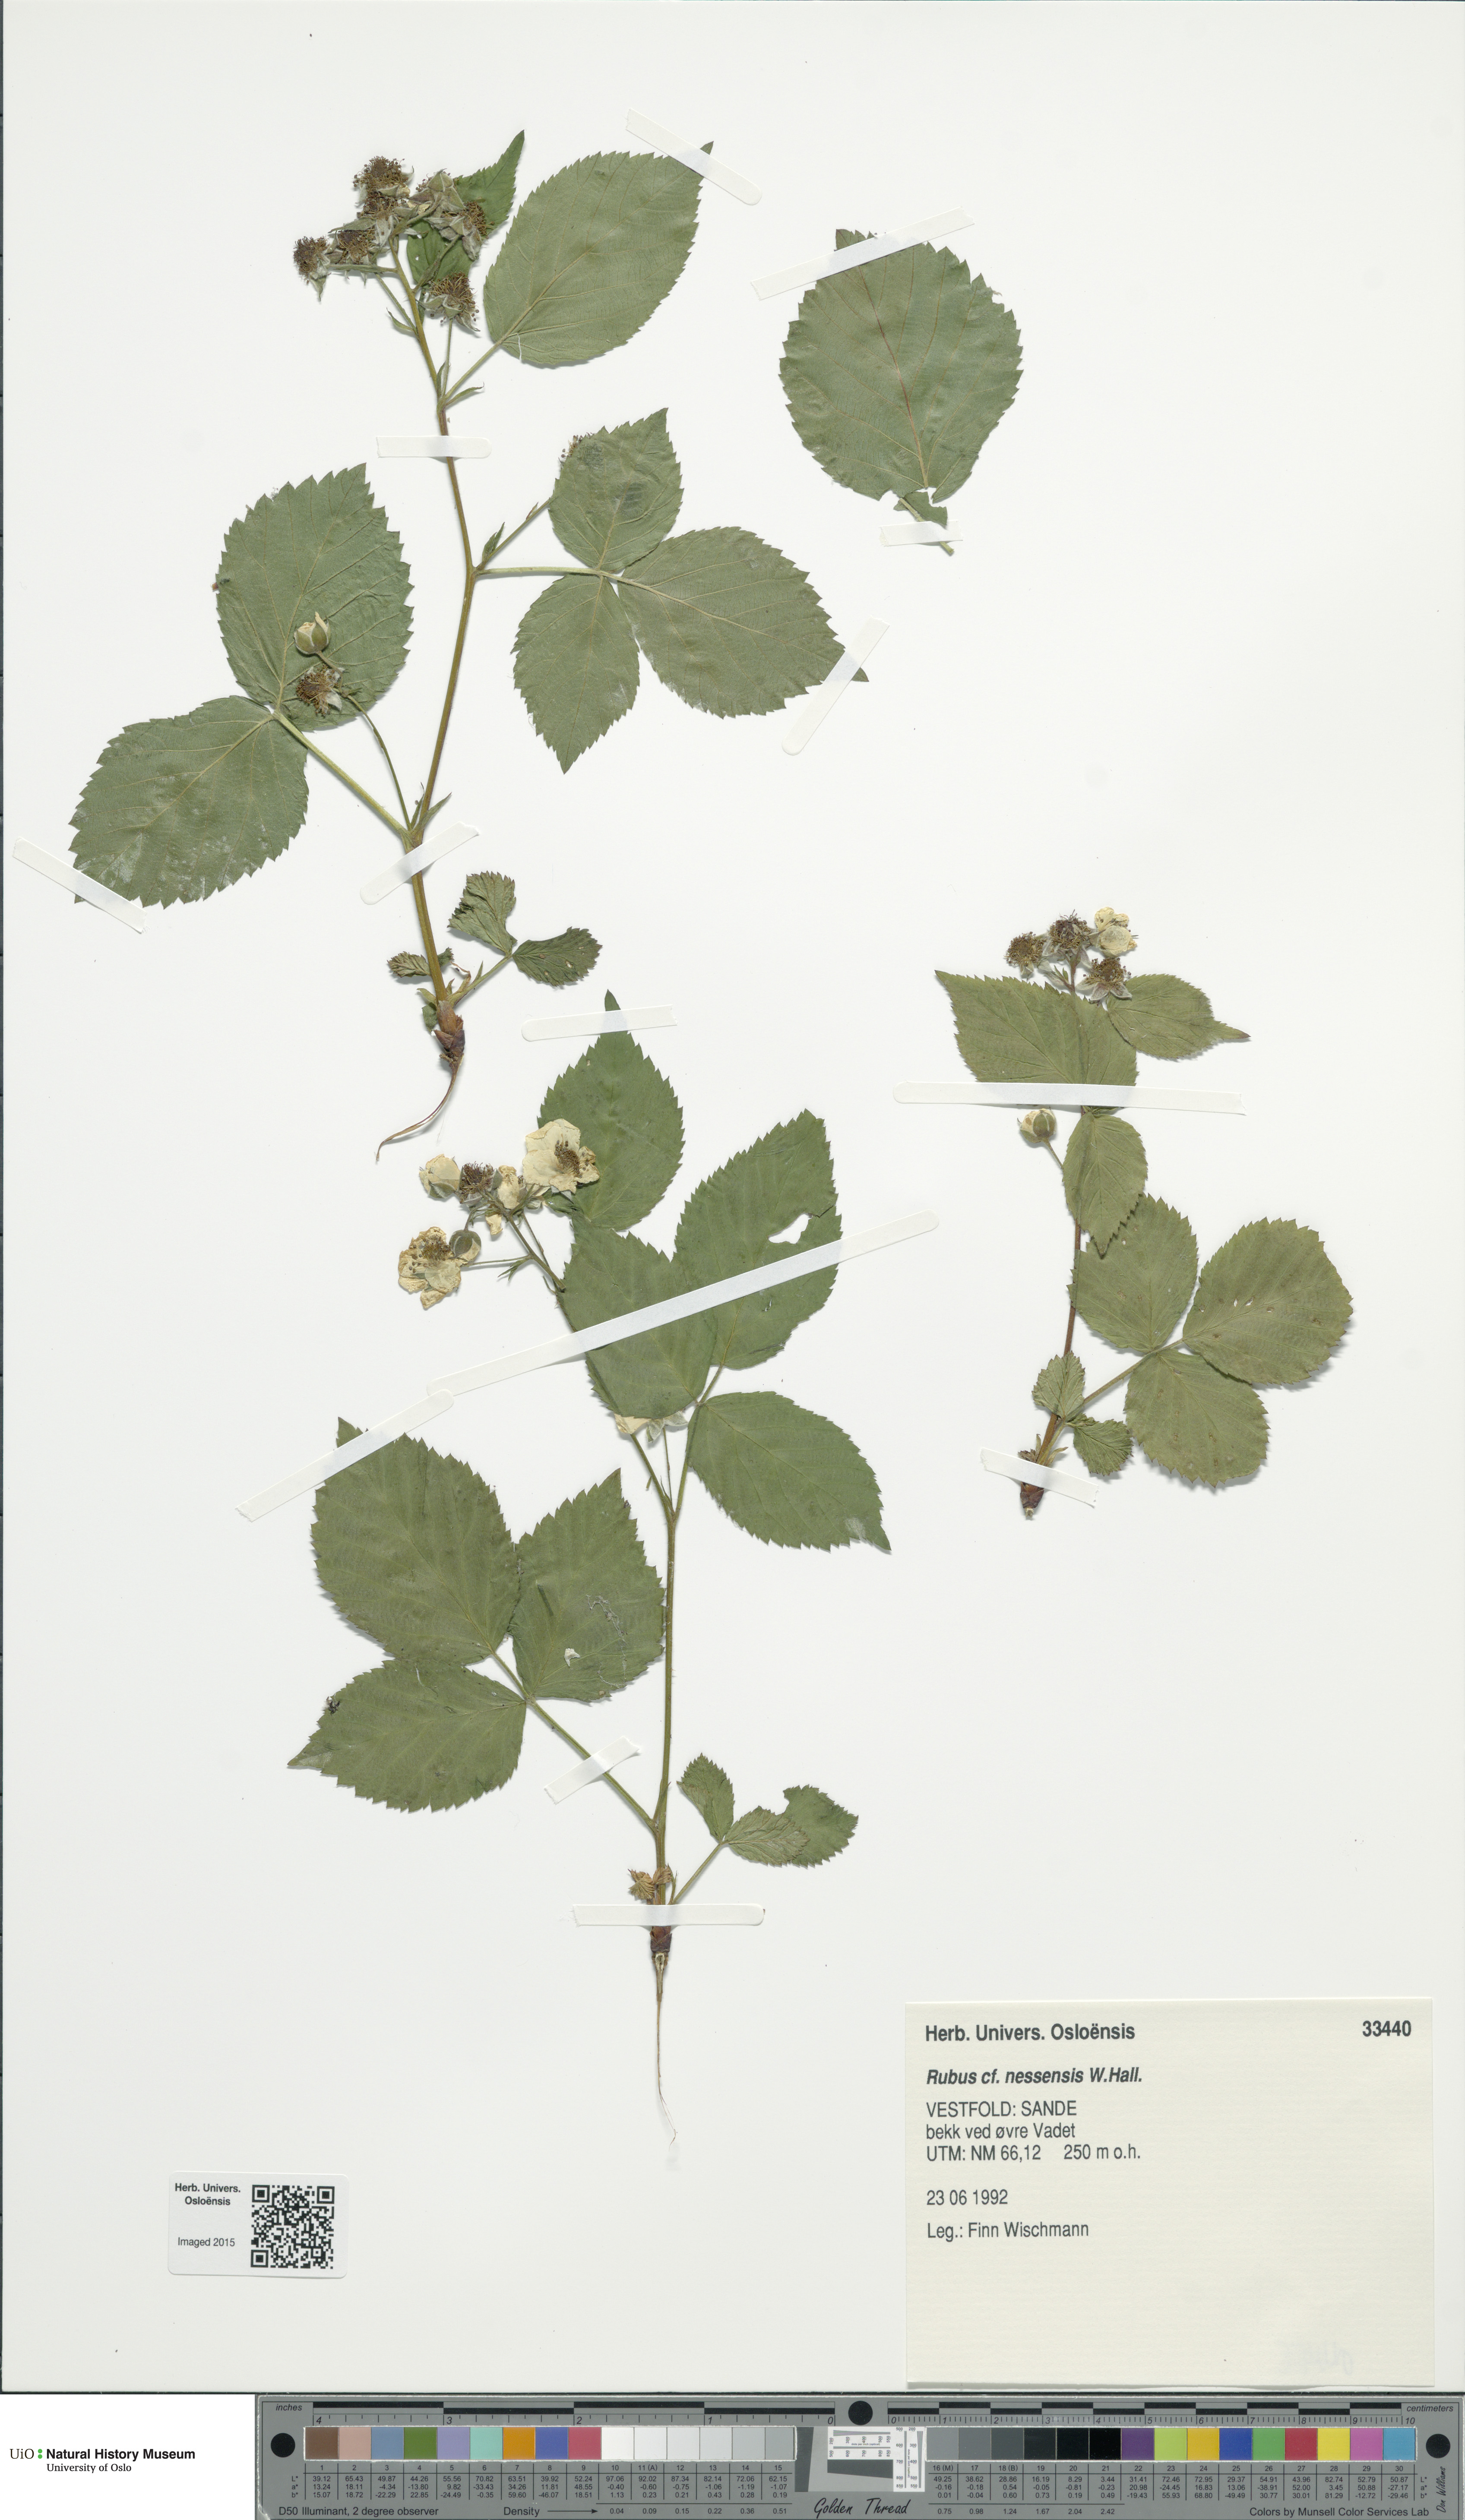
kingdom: Plantae
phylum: Tracheophyta
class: Magnoliopsida
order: Rosales
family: Rosaceae
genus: Rubus
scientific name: Rubus polonicus
